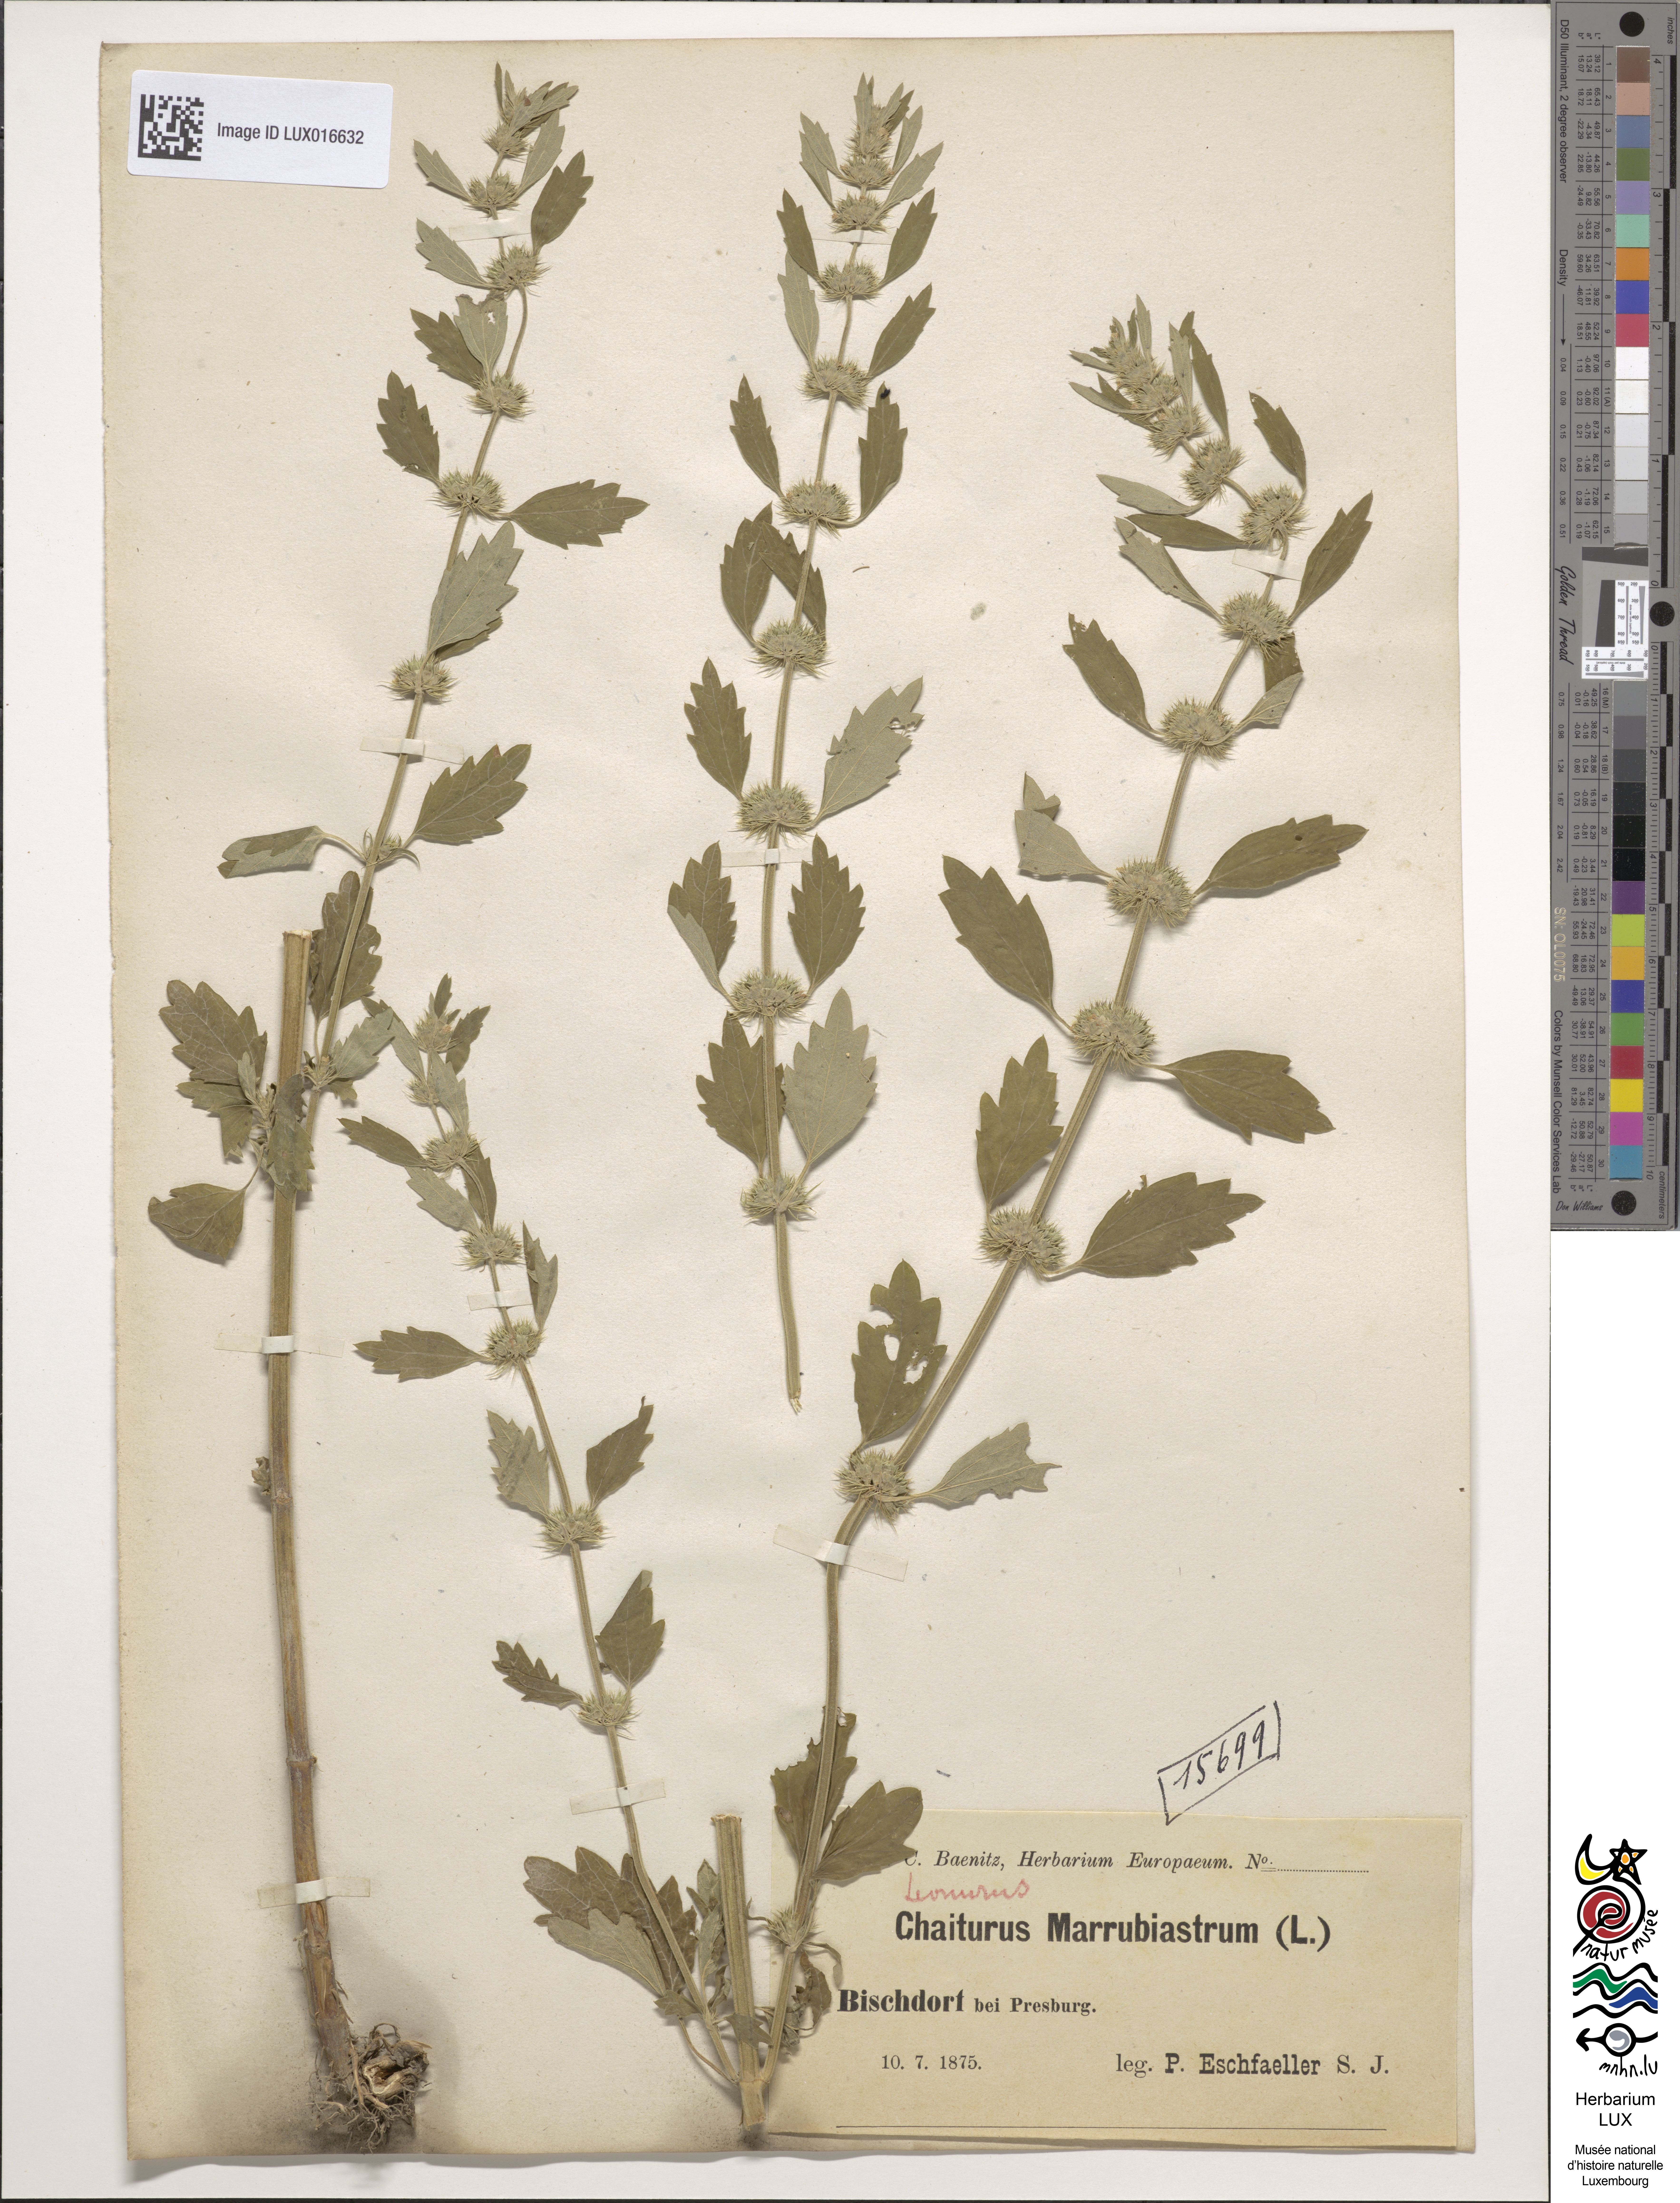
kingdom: Plantae
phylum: Tracheophyta
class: Magnoliopsida
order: Lamiales
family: Lamiaceae
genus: Chaiturus
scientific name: Chaiturus marrubiastrum
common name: Lion's tail
